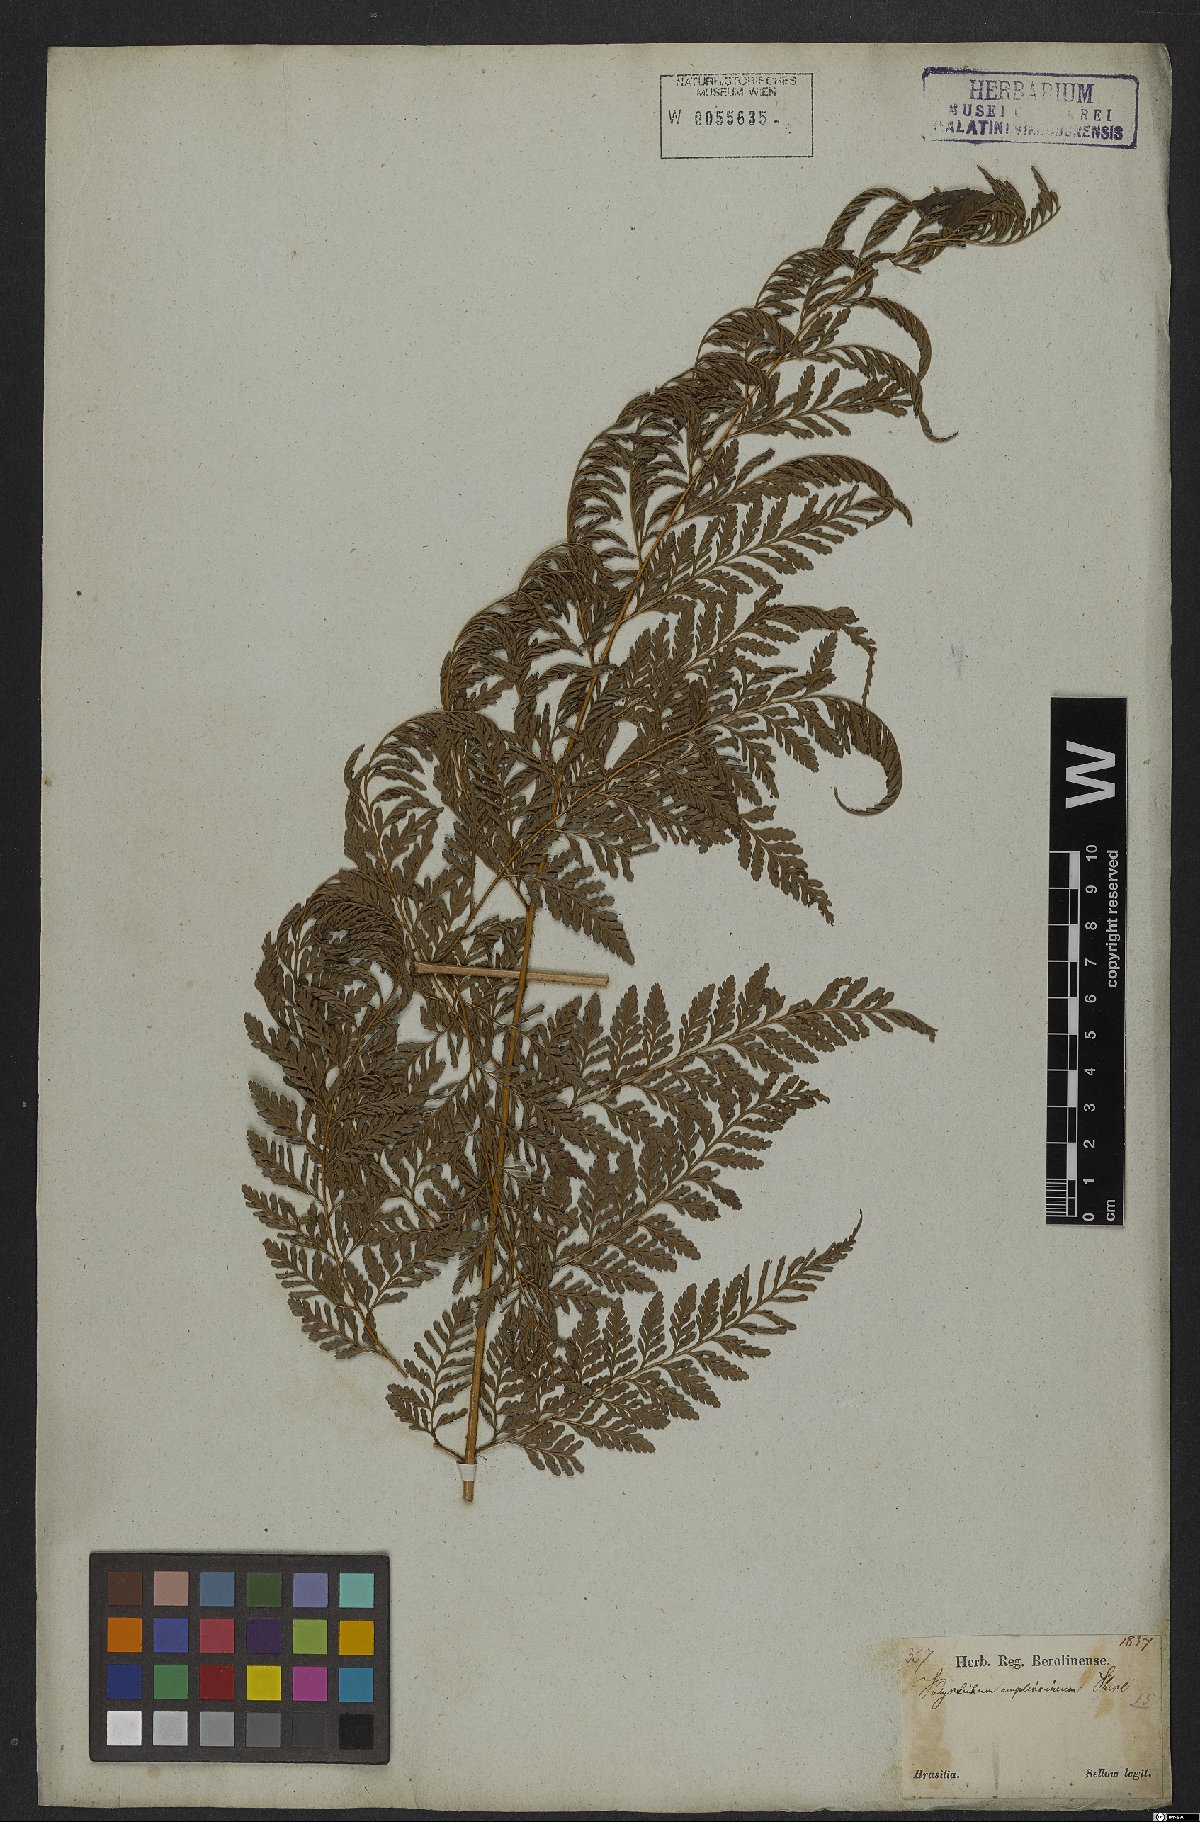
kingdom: Plantae
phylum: Tracheophyta
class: Polypodiopsida
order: Polypodiales
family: Dryopteridaceae
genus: Lastreopsis
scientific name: Lastreopsis amplissima
